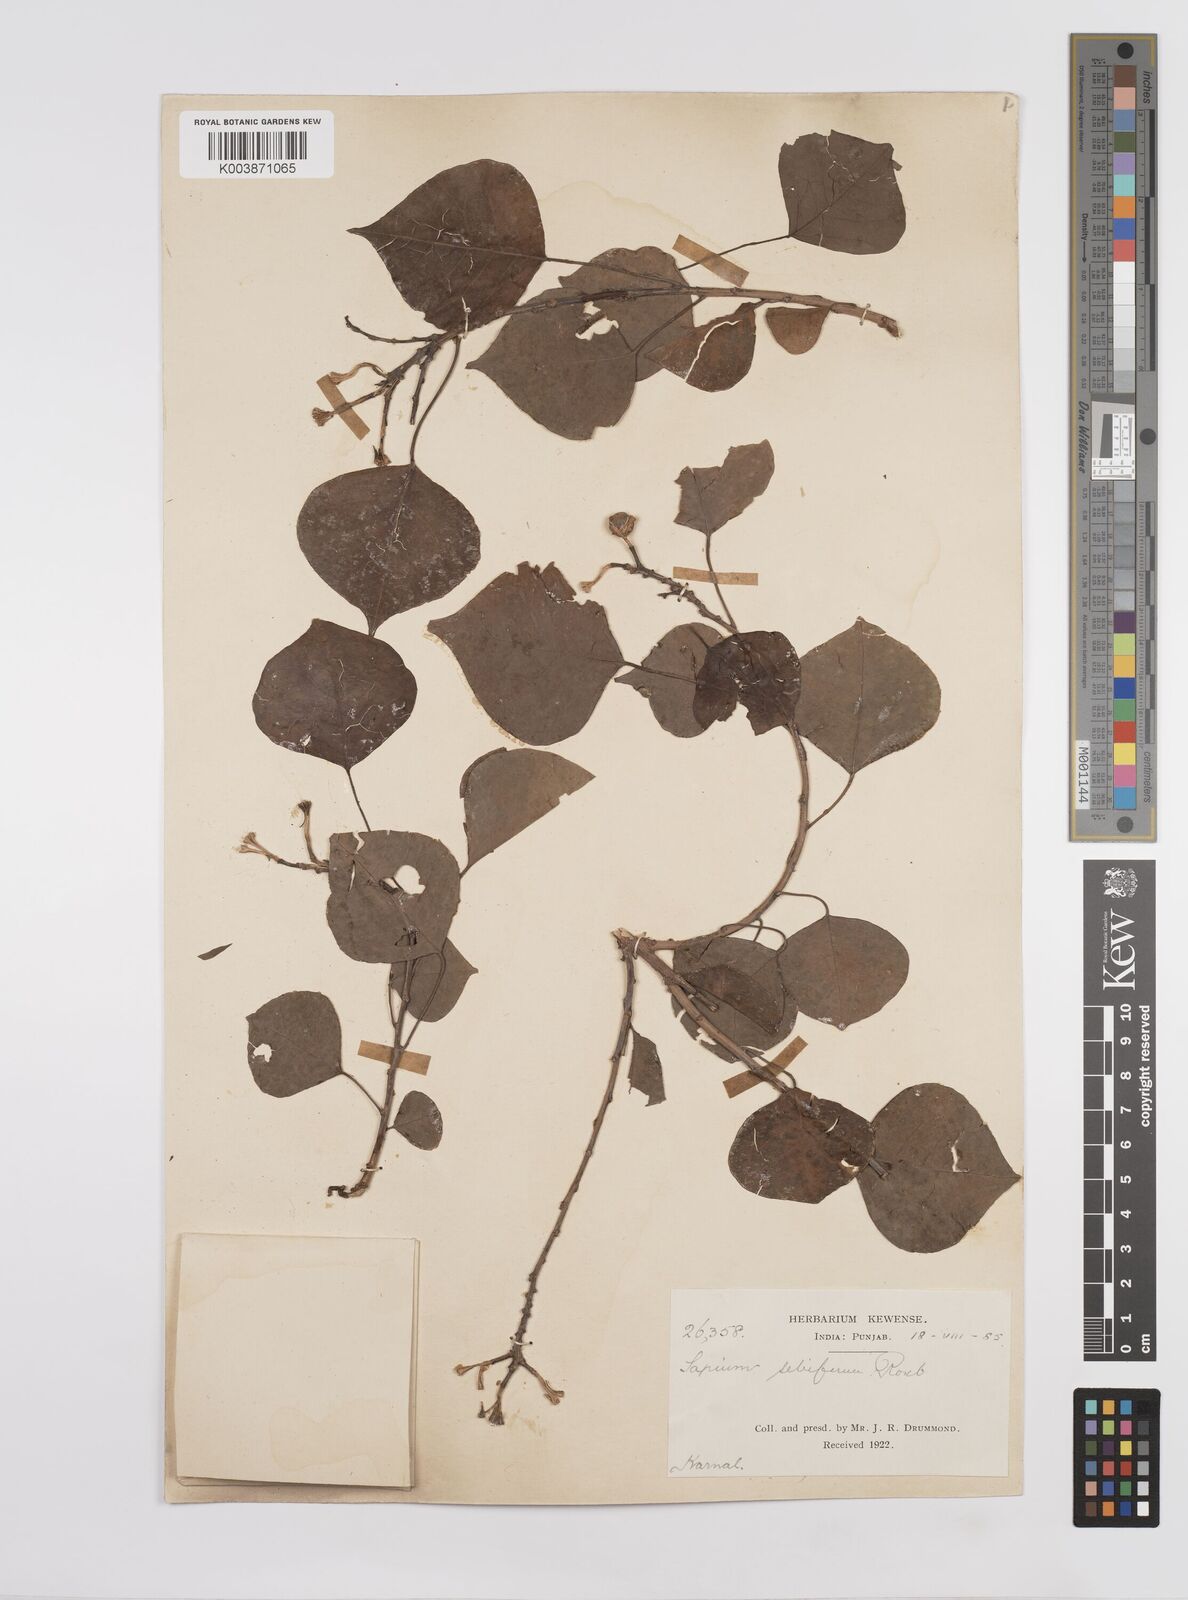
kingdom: Plantae
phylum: Tracheophyta
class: Magnoliopsida
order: Malpighiales
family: Euphorbiaceae
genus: Triadica
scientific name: Triadica sebifera
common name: Chinese tallow
